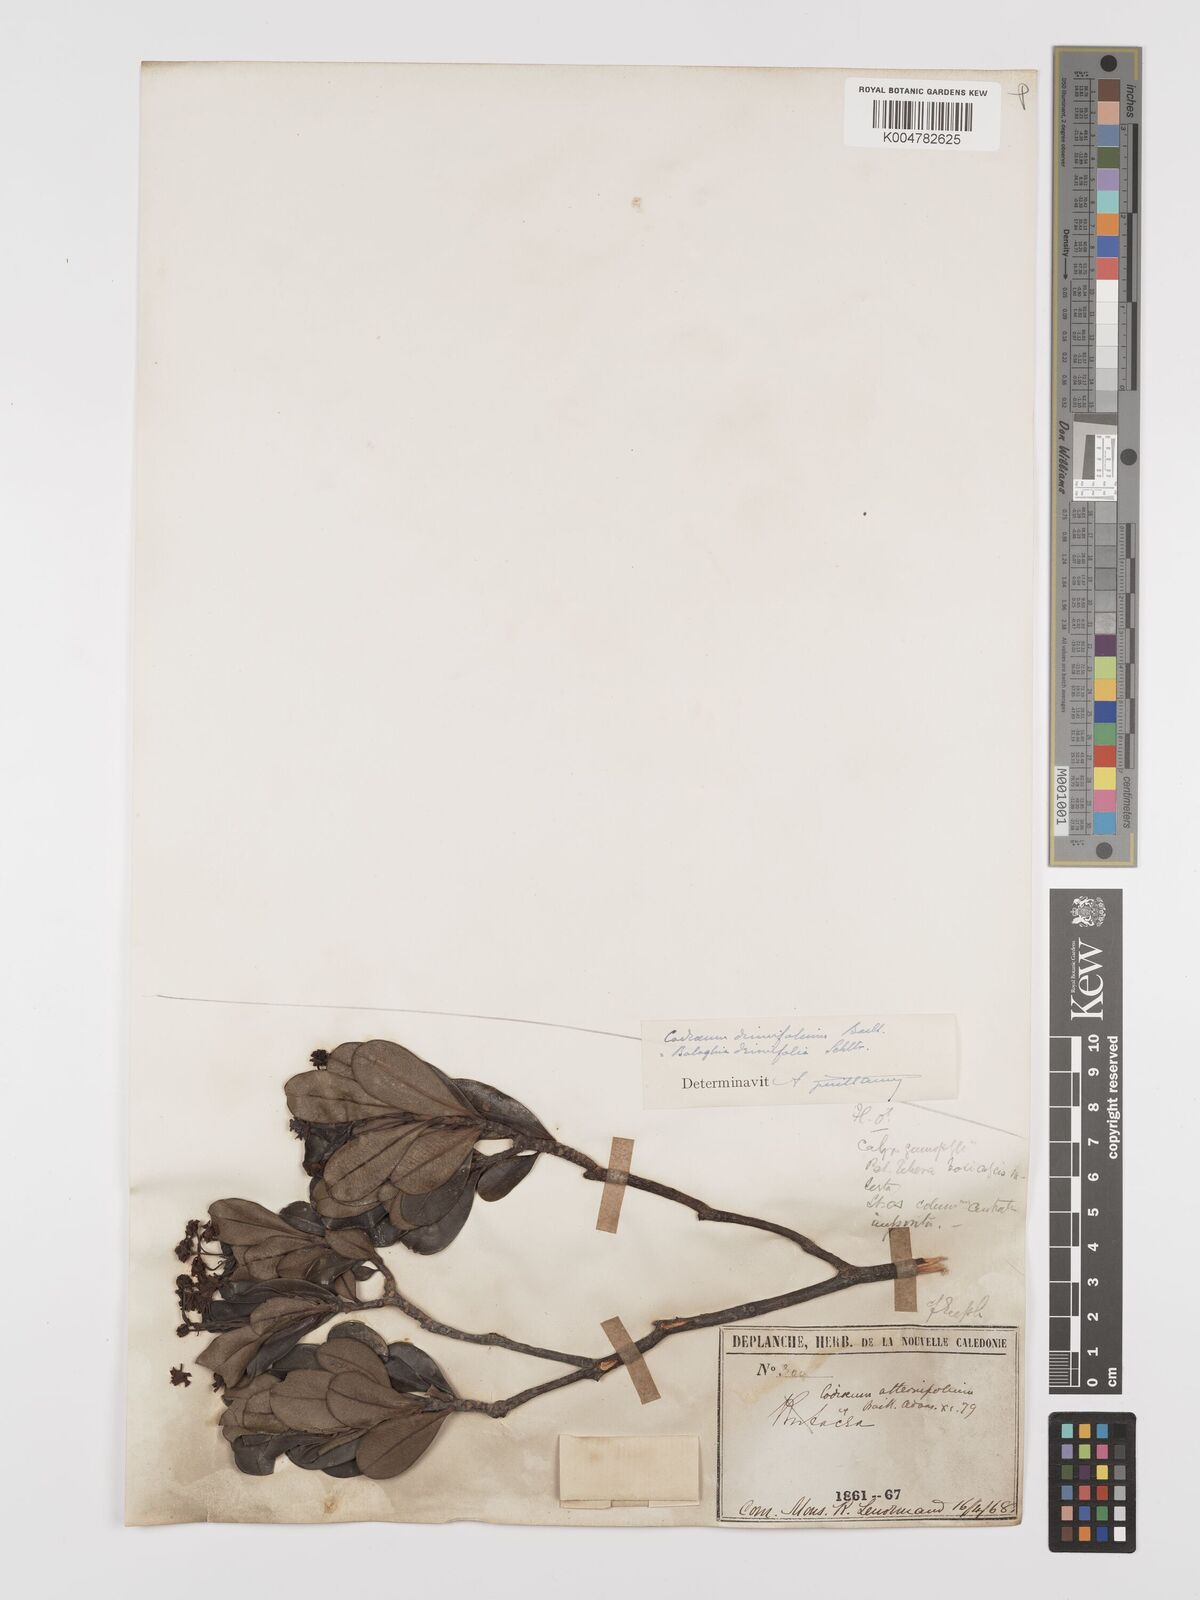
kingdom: Plantae
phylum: Tracheophyta
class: Magnoliopsida
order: Malpighiales
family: Euphorbiaceae
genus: Baloghia
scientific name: Baloghia drimiflora
